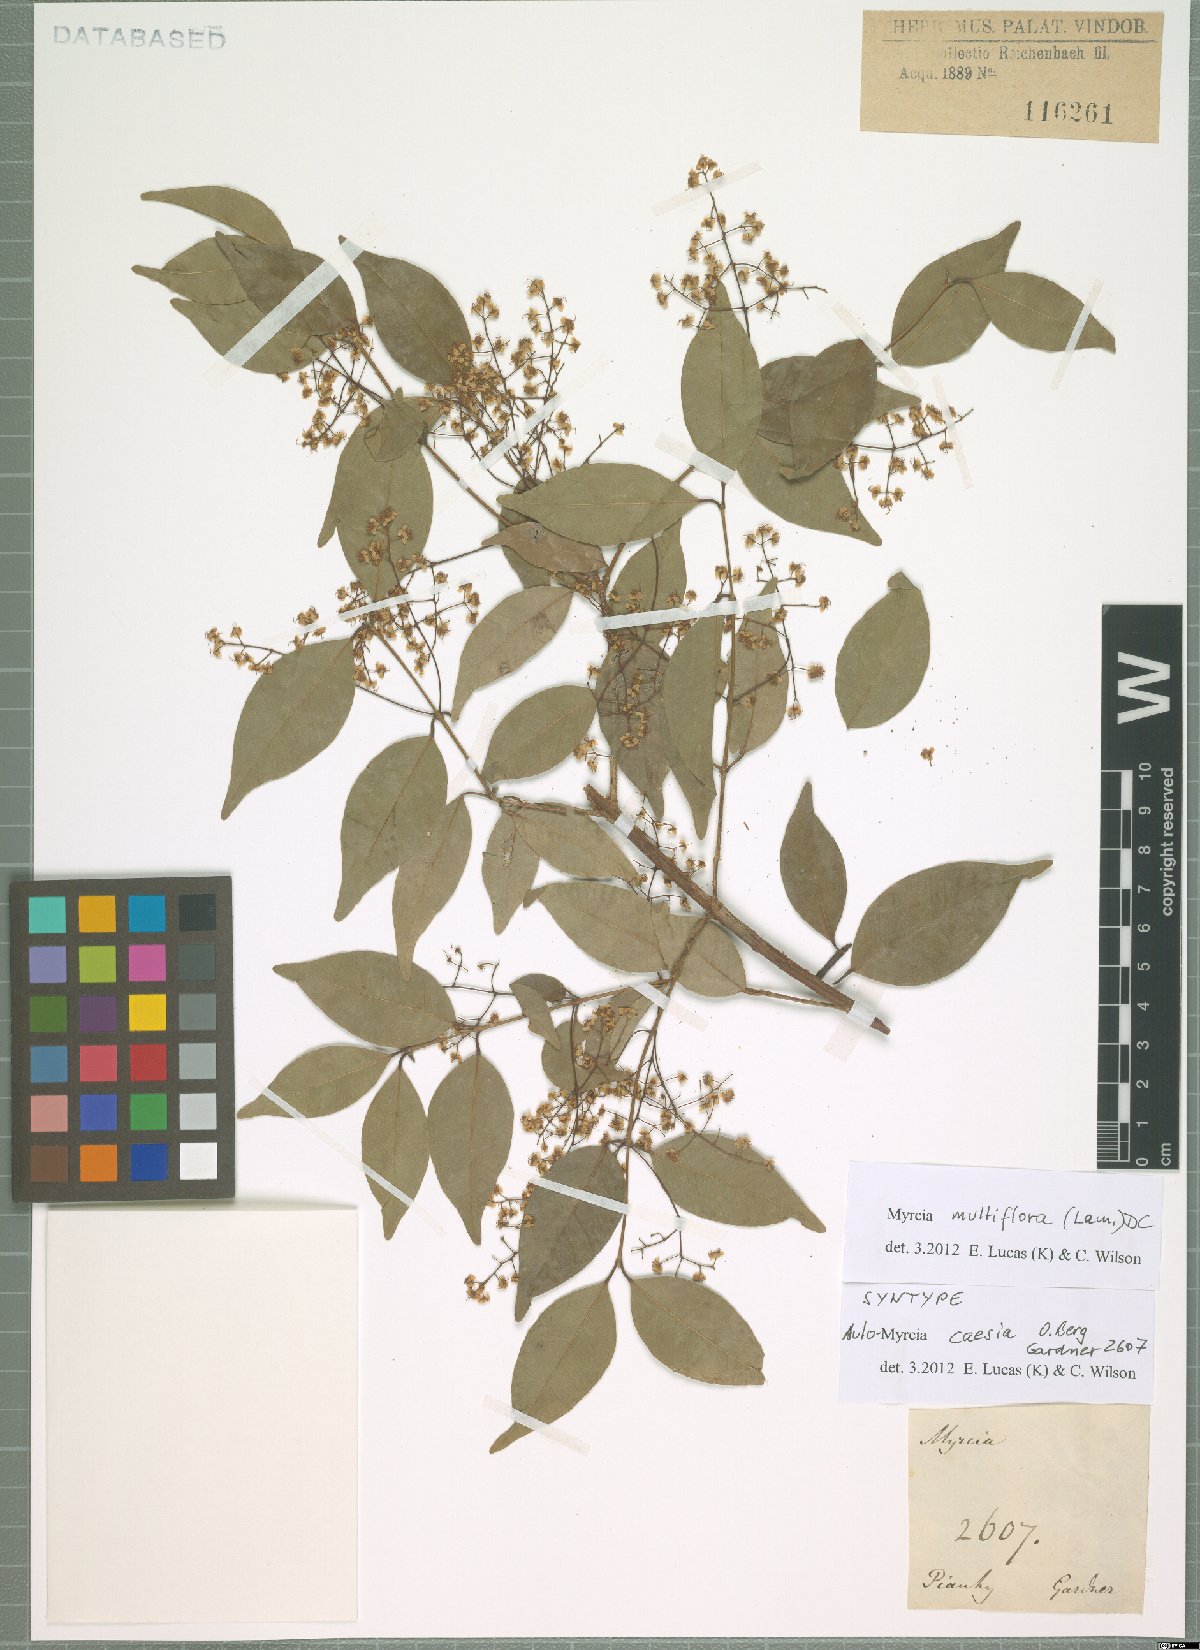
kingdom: Plantae
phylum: Tracheophyta
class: Magnoliopsida
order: Myrtales
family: Myrtaceae
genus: Myrcia
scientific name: Myrcia multiflora
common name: Pedra hume
